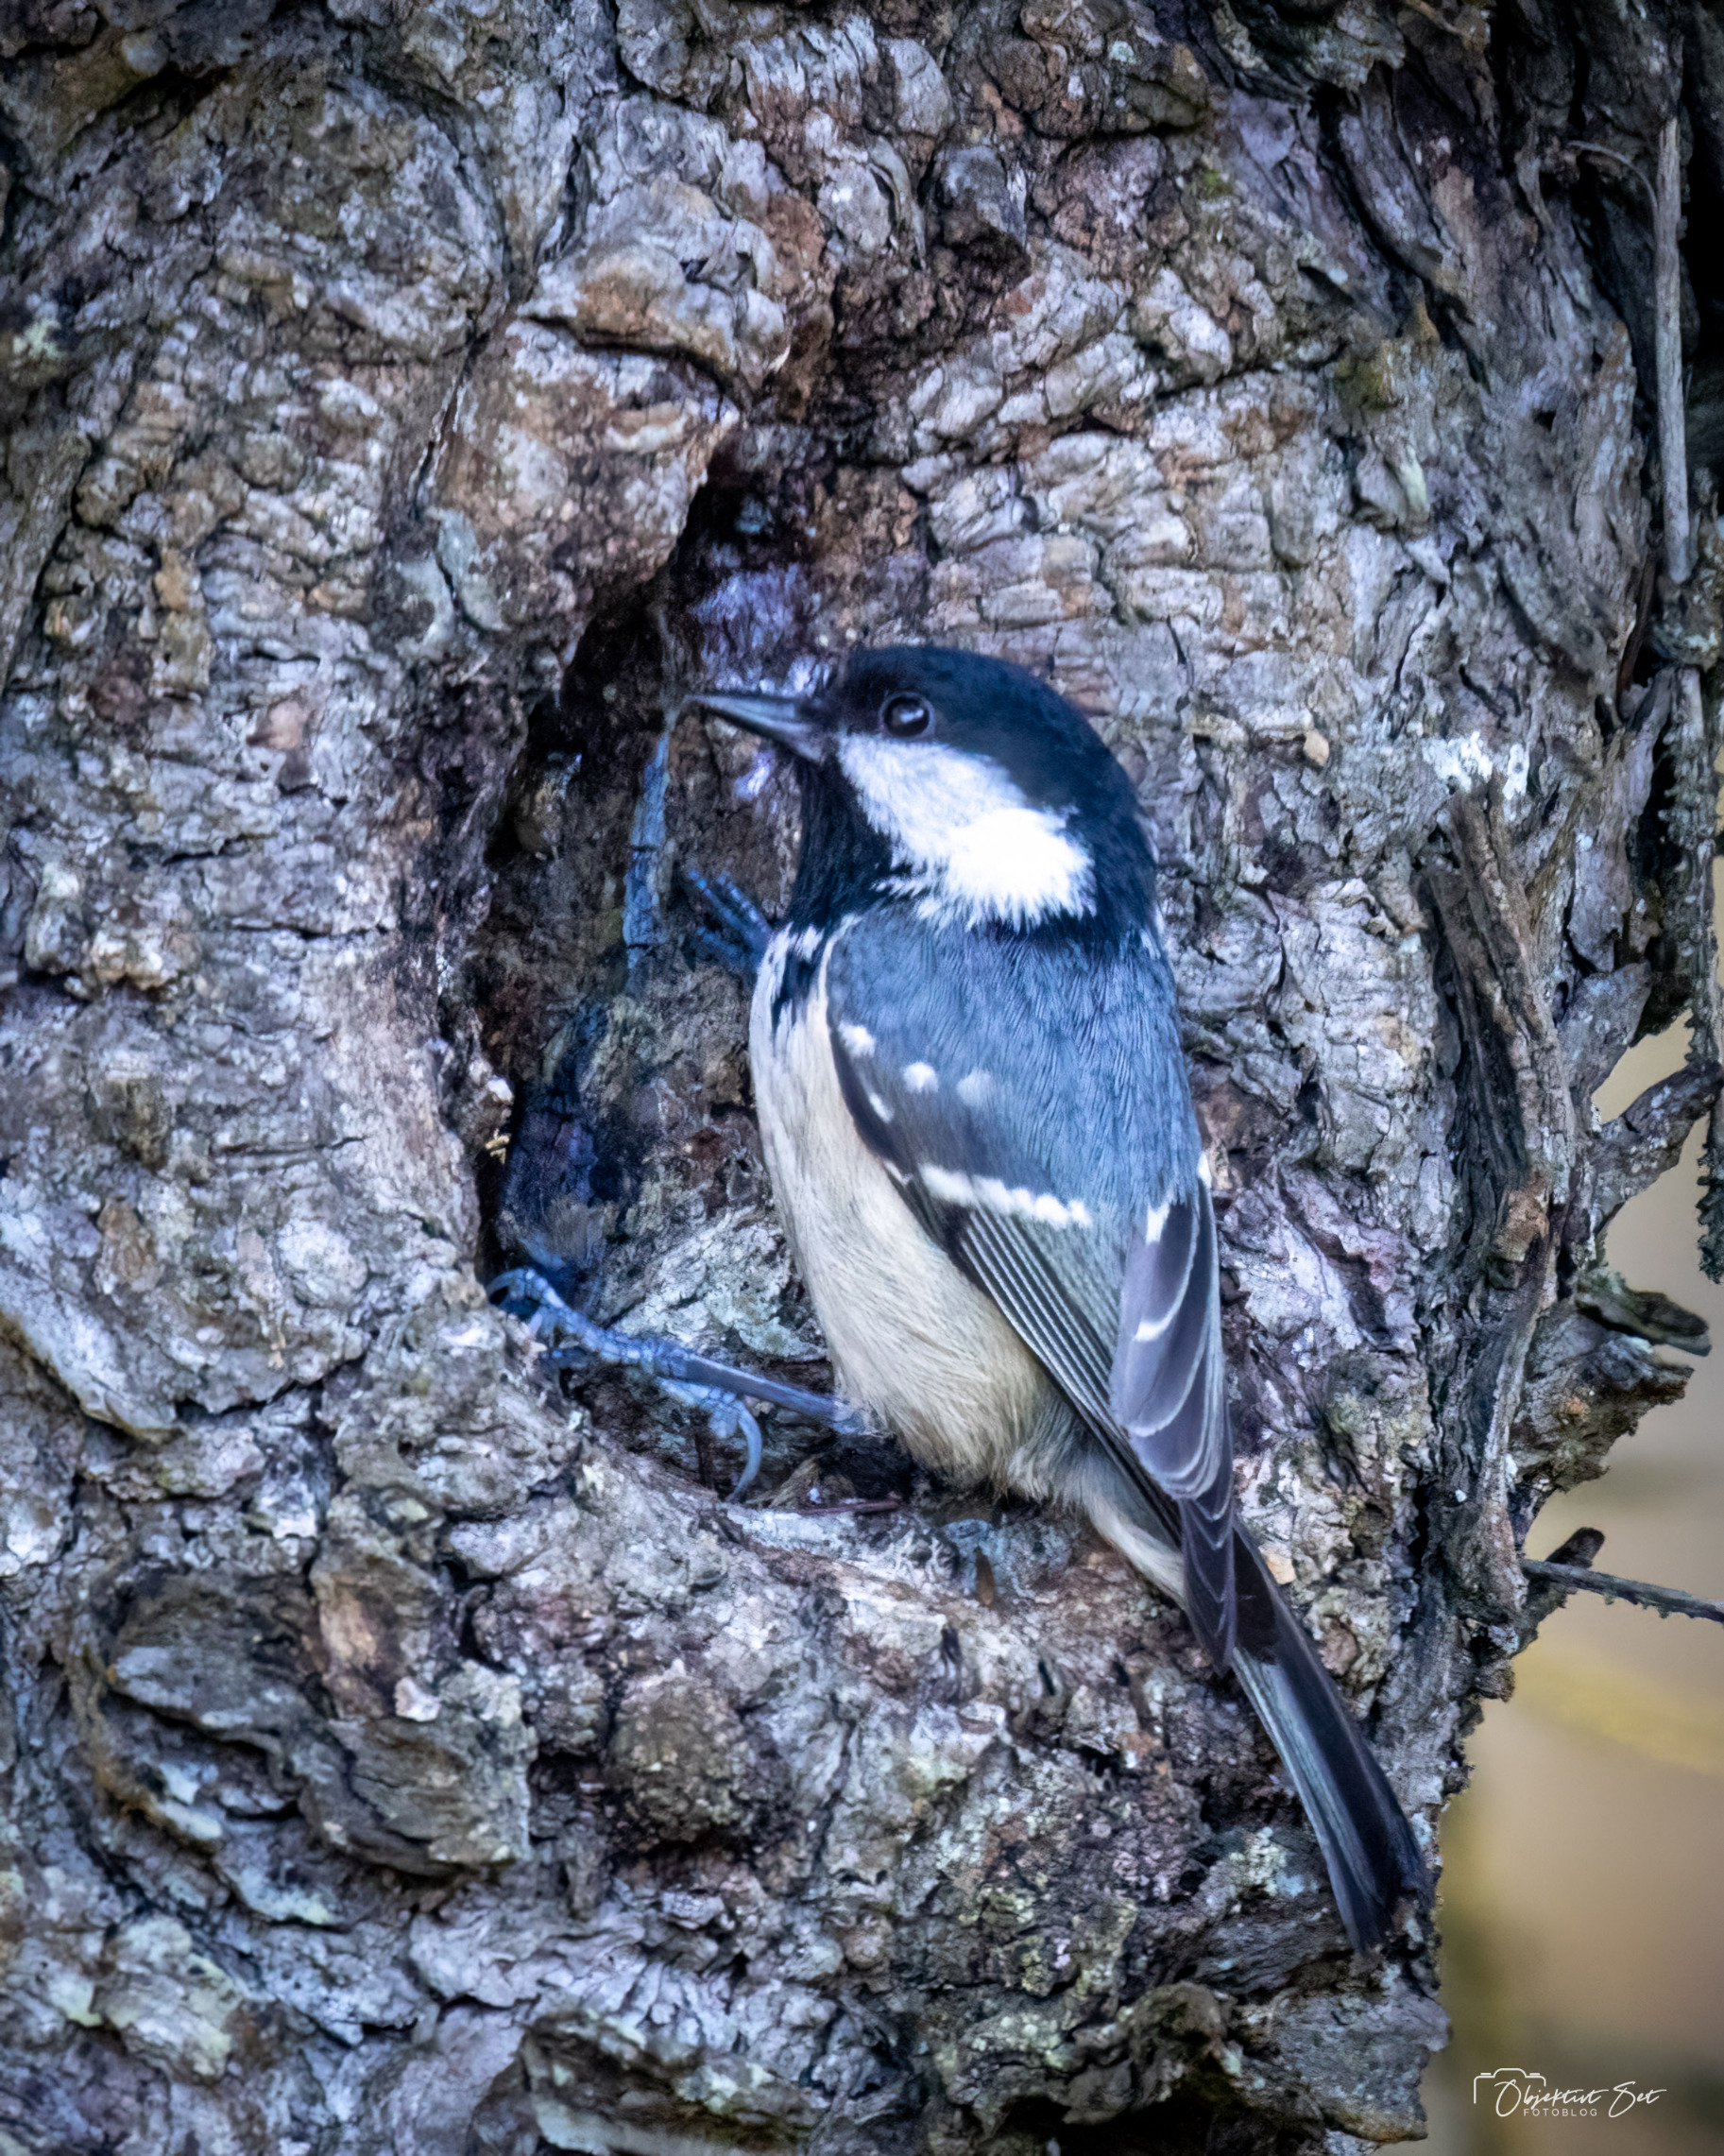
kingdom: Animalia
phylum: Chordata
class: Aves
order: Passeriformes
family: Paridae
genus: Periparus
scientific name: Periparus ater
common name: Sortmejse
